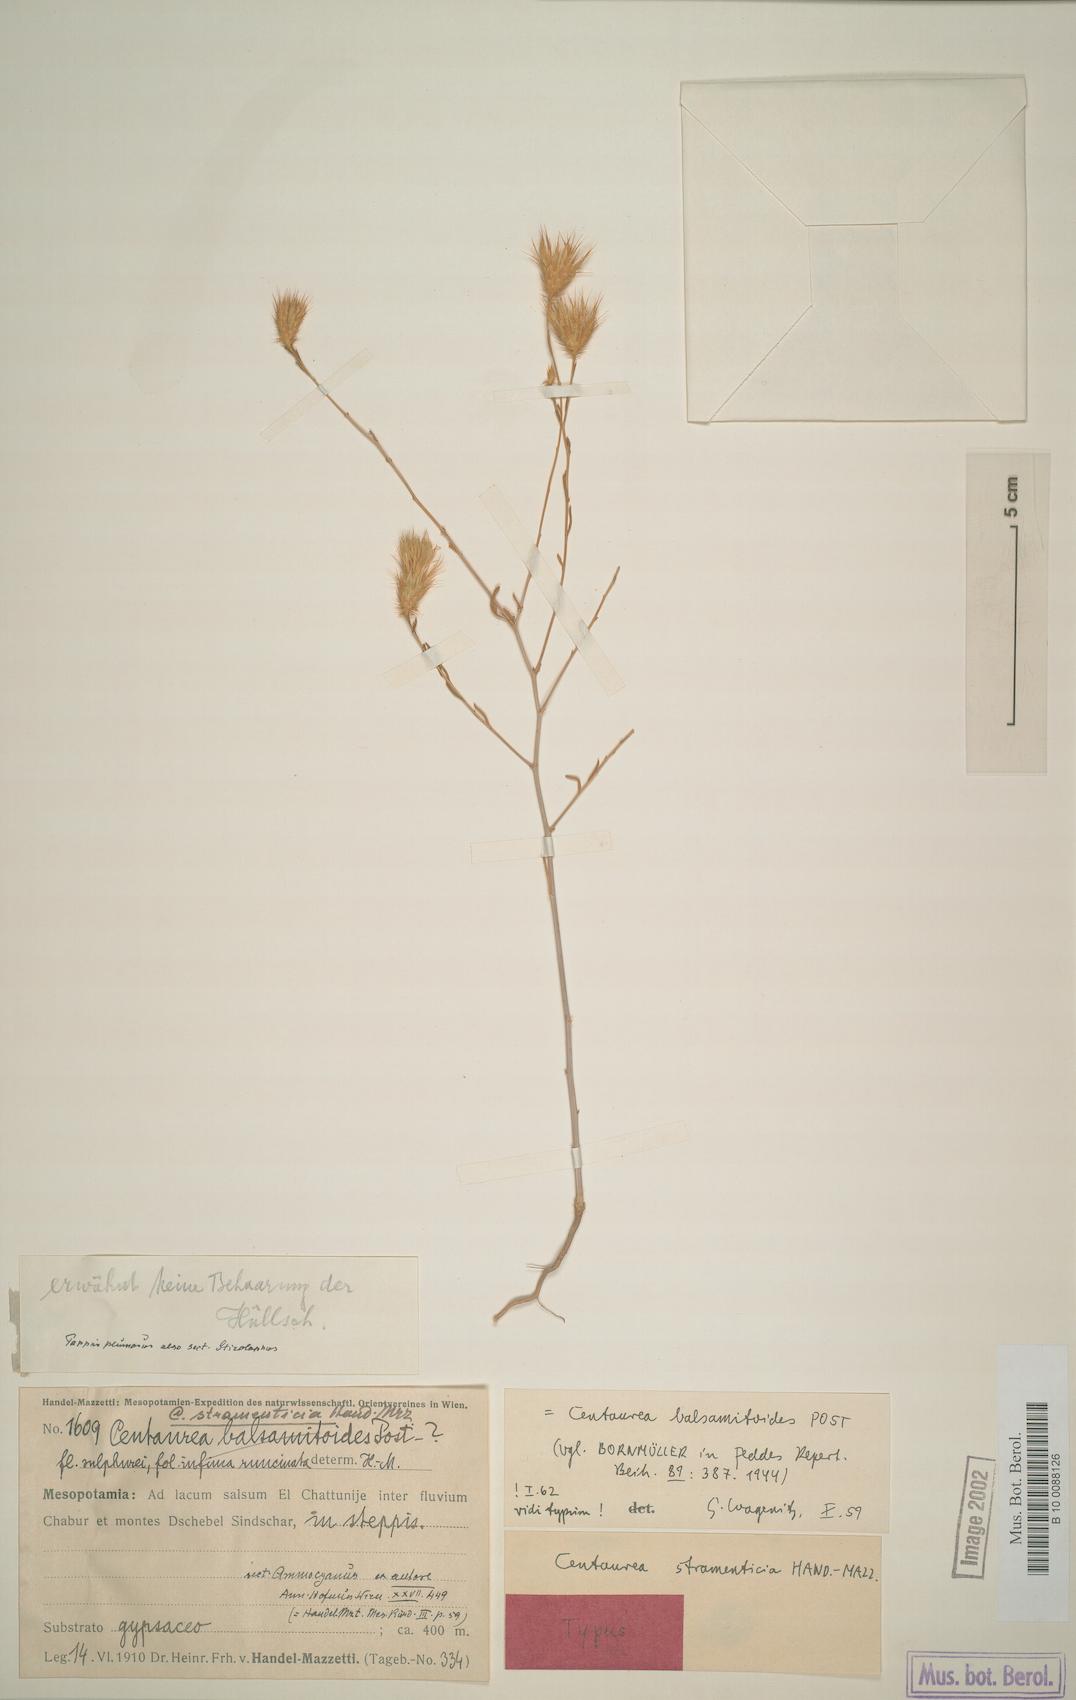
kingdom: Plantae
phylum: Tracheophyta
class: Magnoliopsida
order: Asterales
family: Asteraceae
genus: Stizolophus
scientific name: Stizolophus balsamitoides
